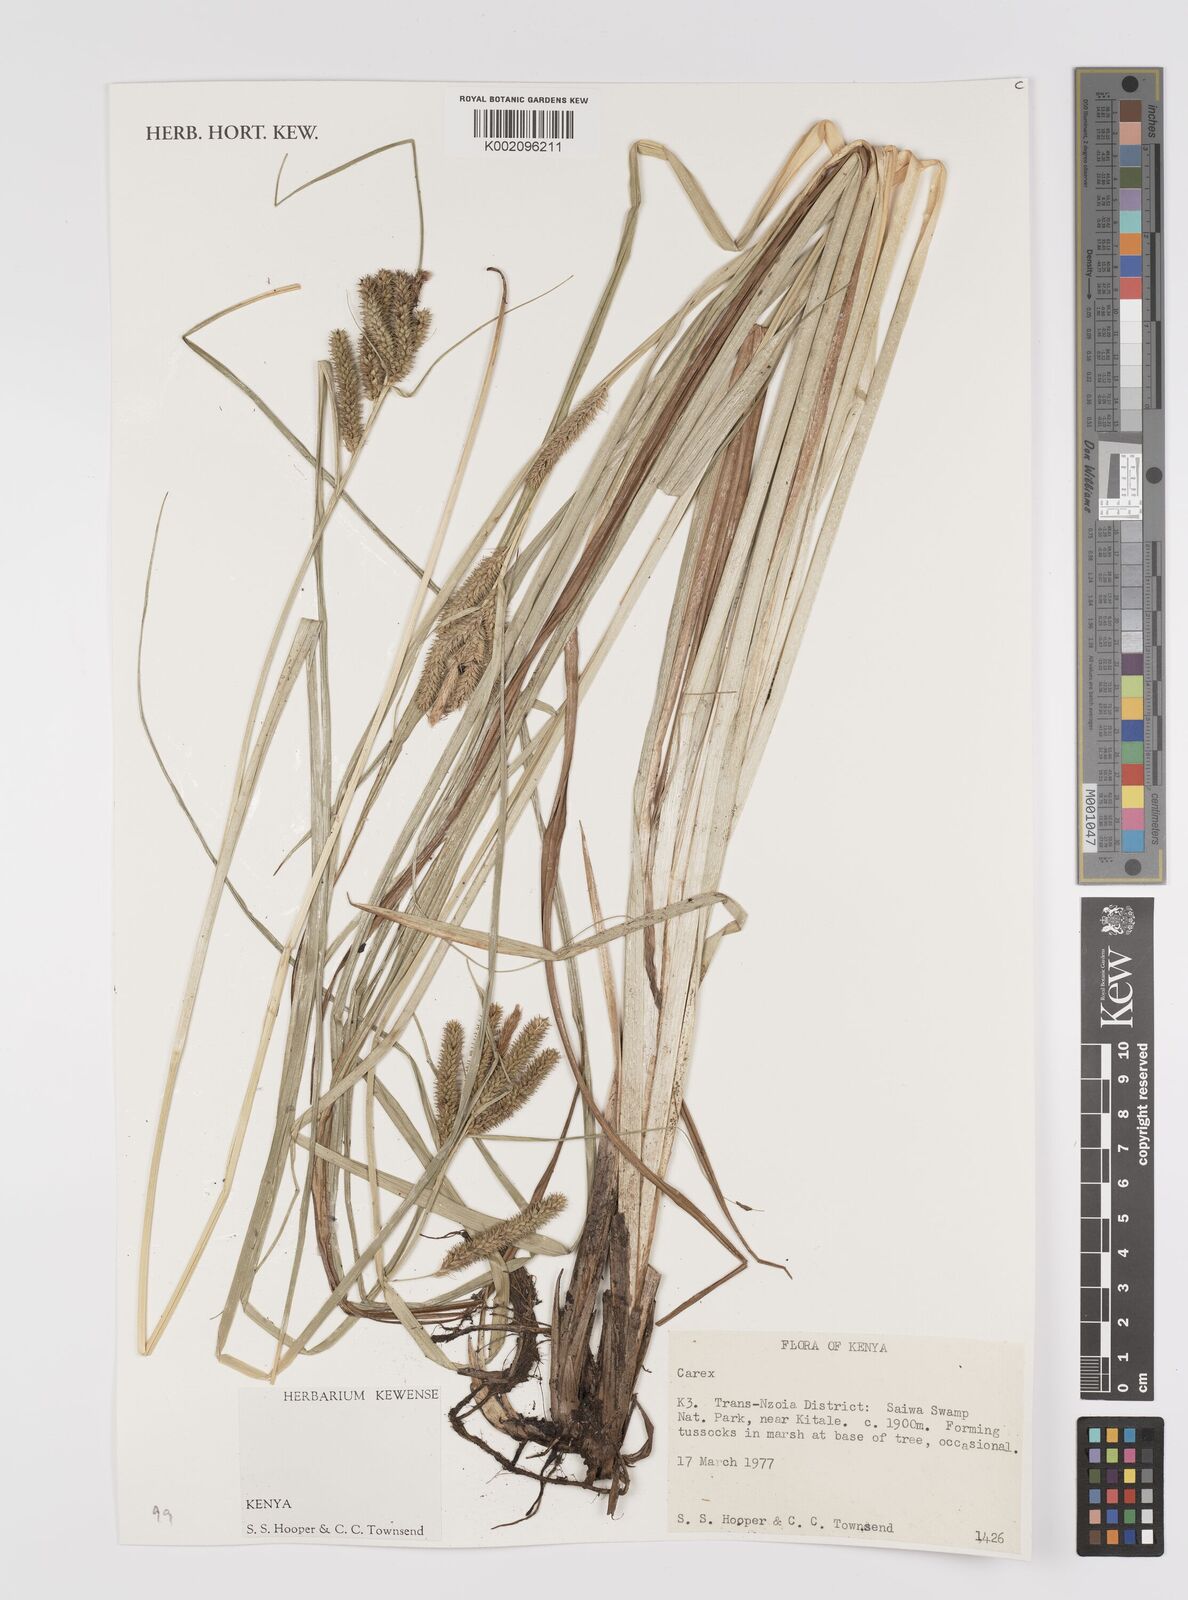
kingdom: Plantae
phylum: Tracheophyta
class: Liliopsida
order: Poales
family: Cyperaceae
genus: Carex
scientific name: Carex
